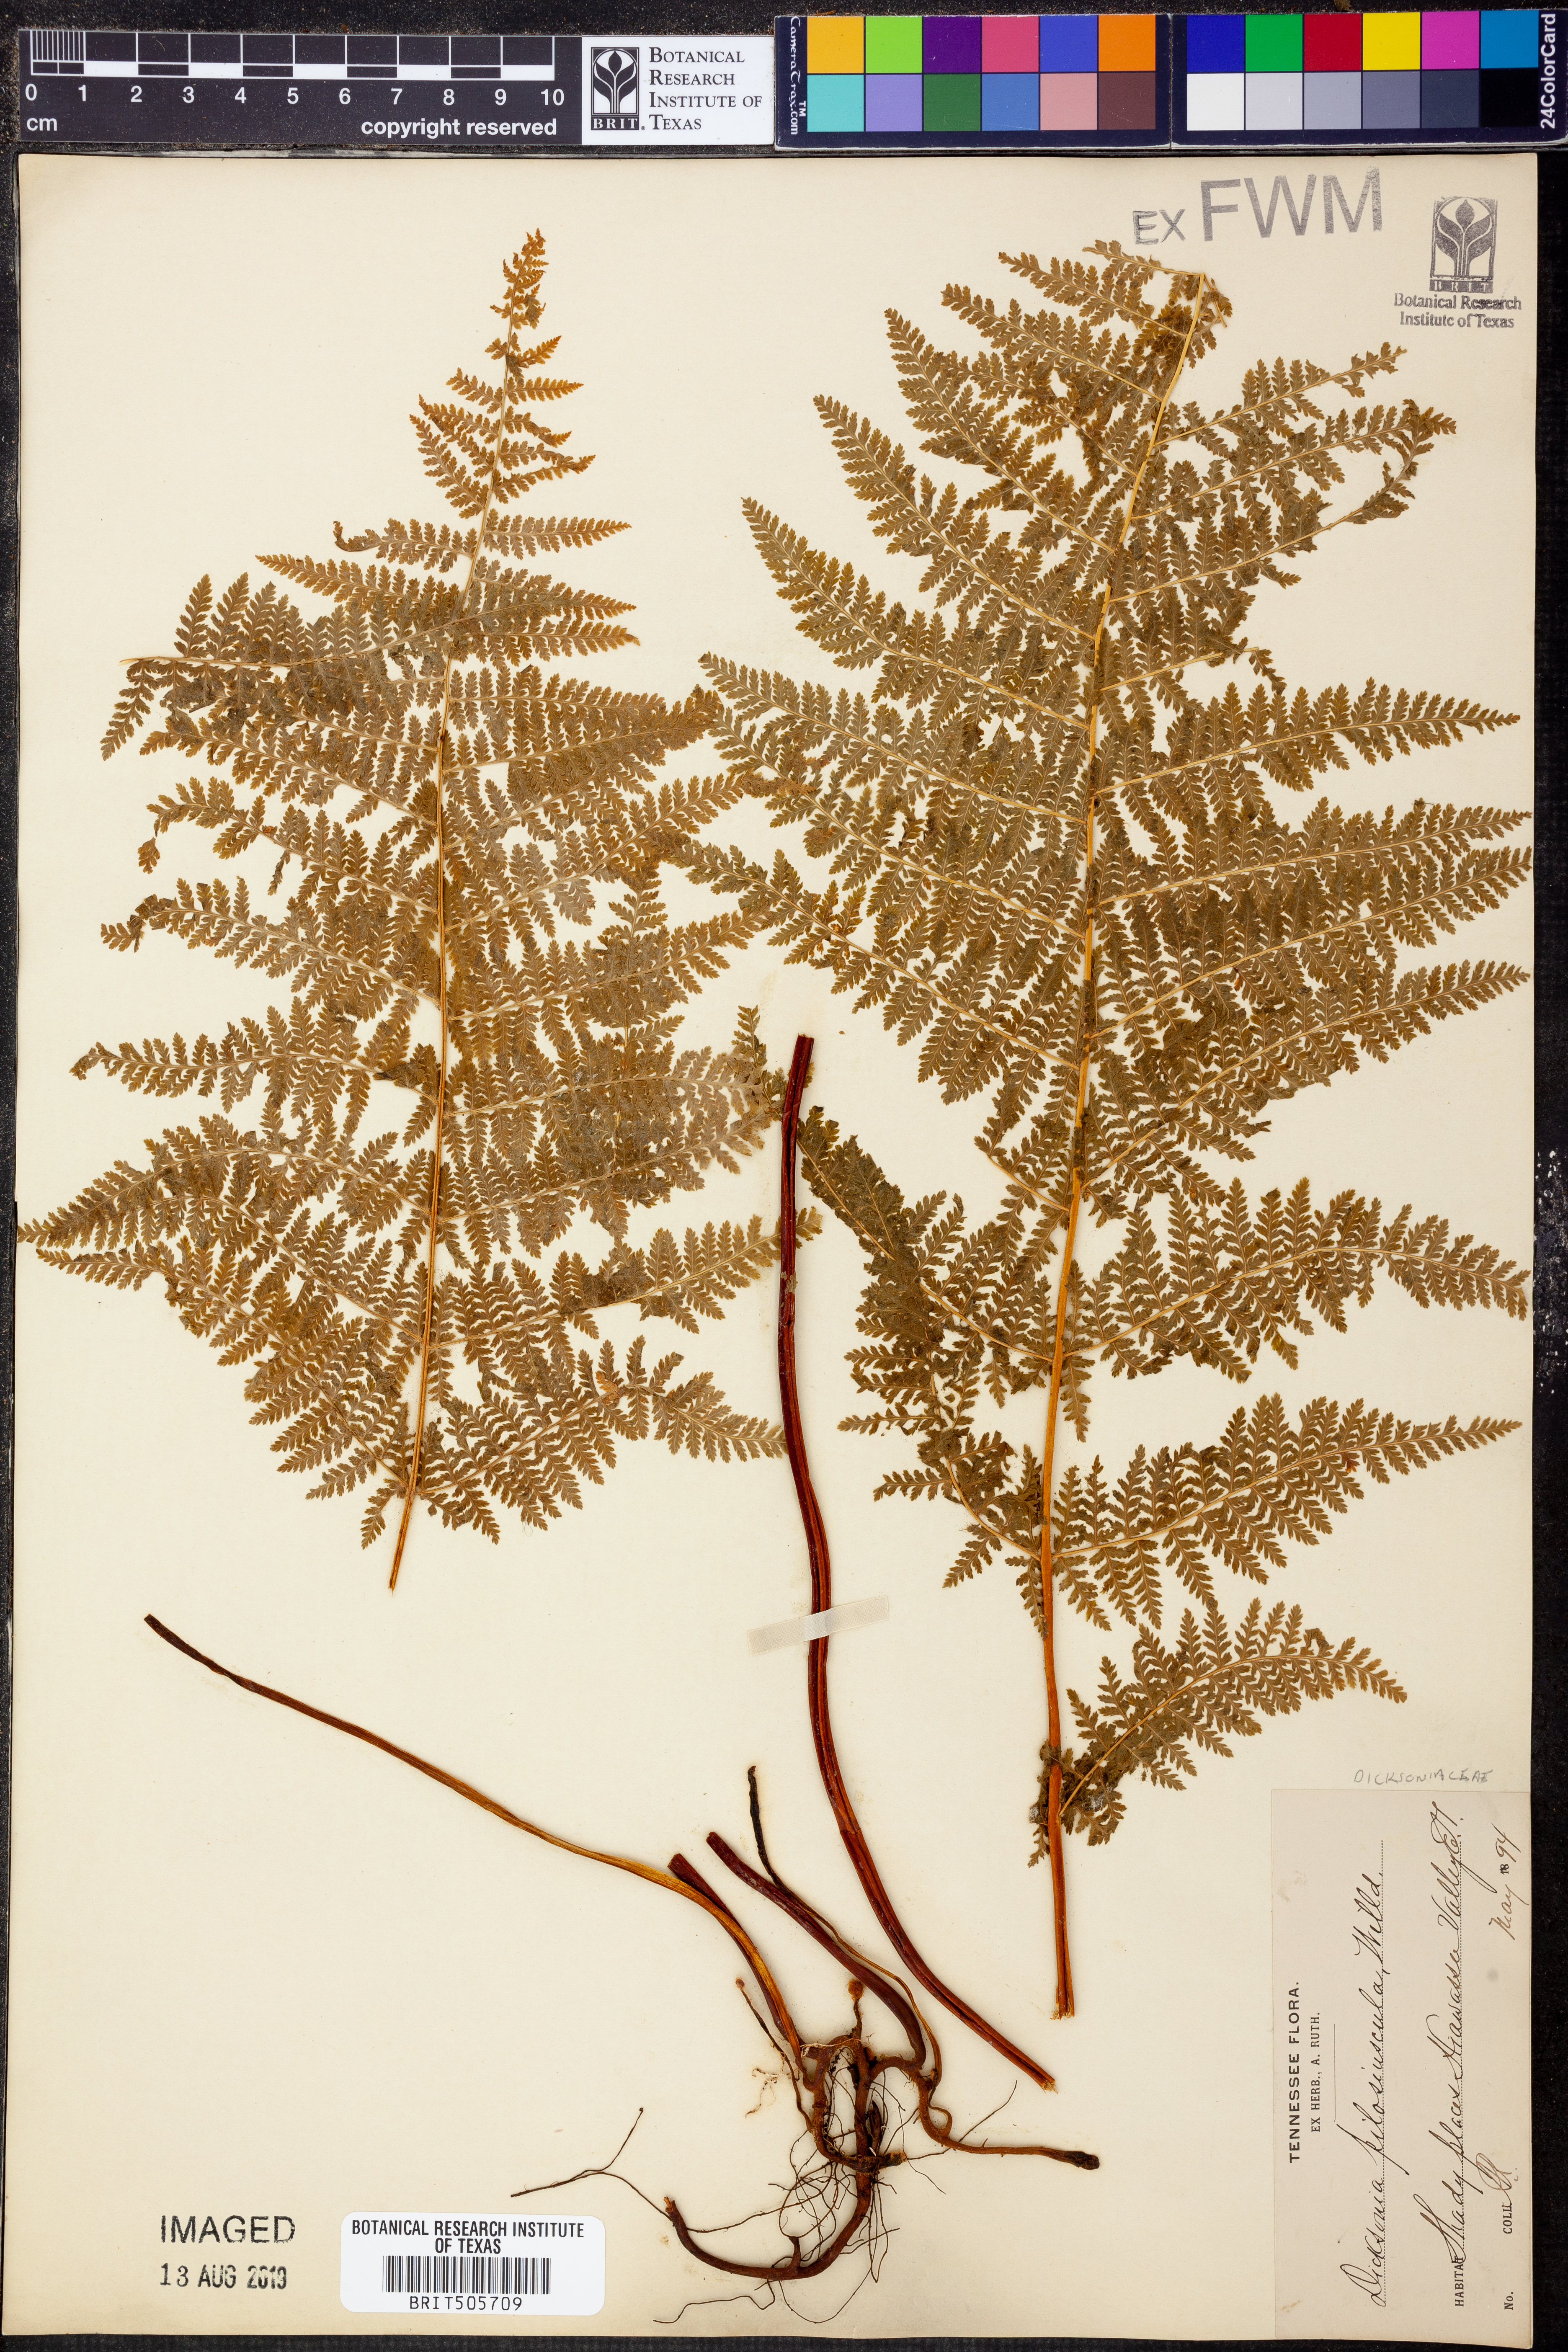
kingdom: Plantae
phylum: Tracheophyta
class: Polypodiopsida
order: Polypodiales
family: Dennstaedtiaceae
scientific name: Dennstaedtiaceae
